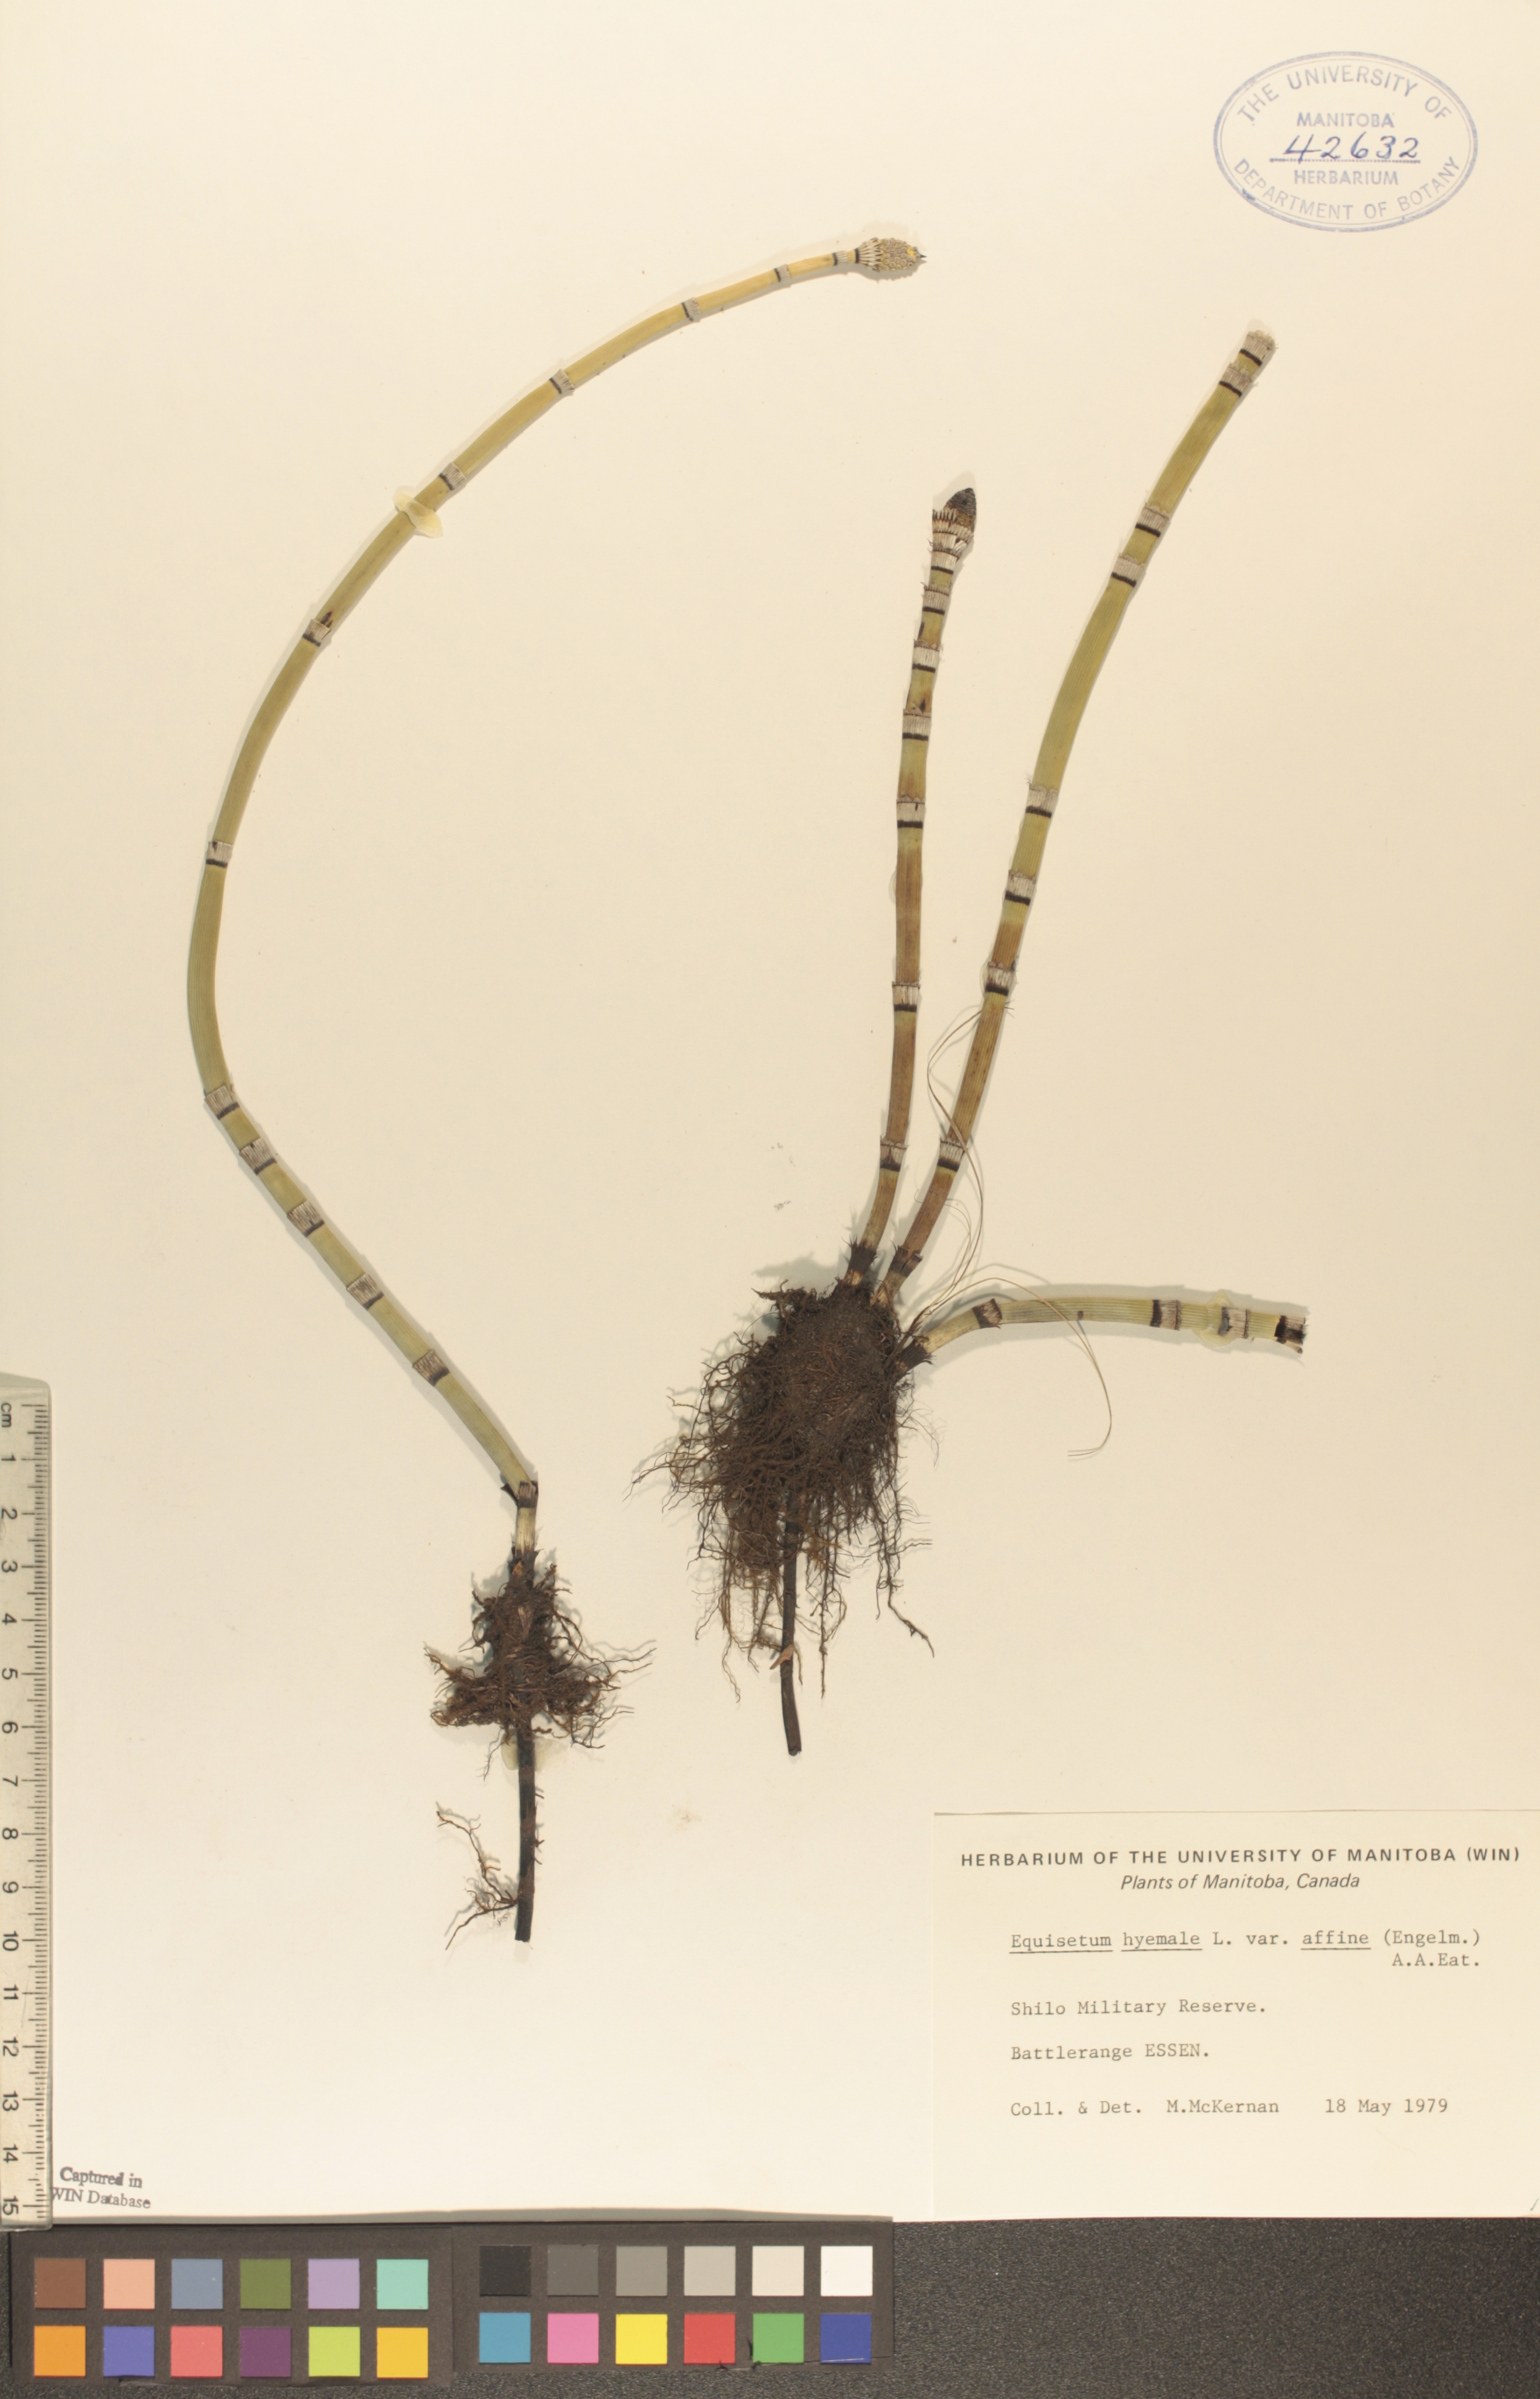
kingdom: Plantae
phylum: Tracheophyta
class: Polypodiopsida
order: Equisetales
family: Equisetaceae
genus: Equisetum
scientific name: Equisetum praealtum
